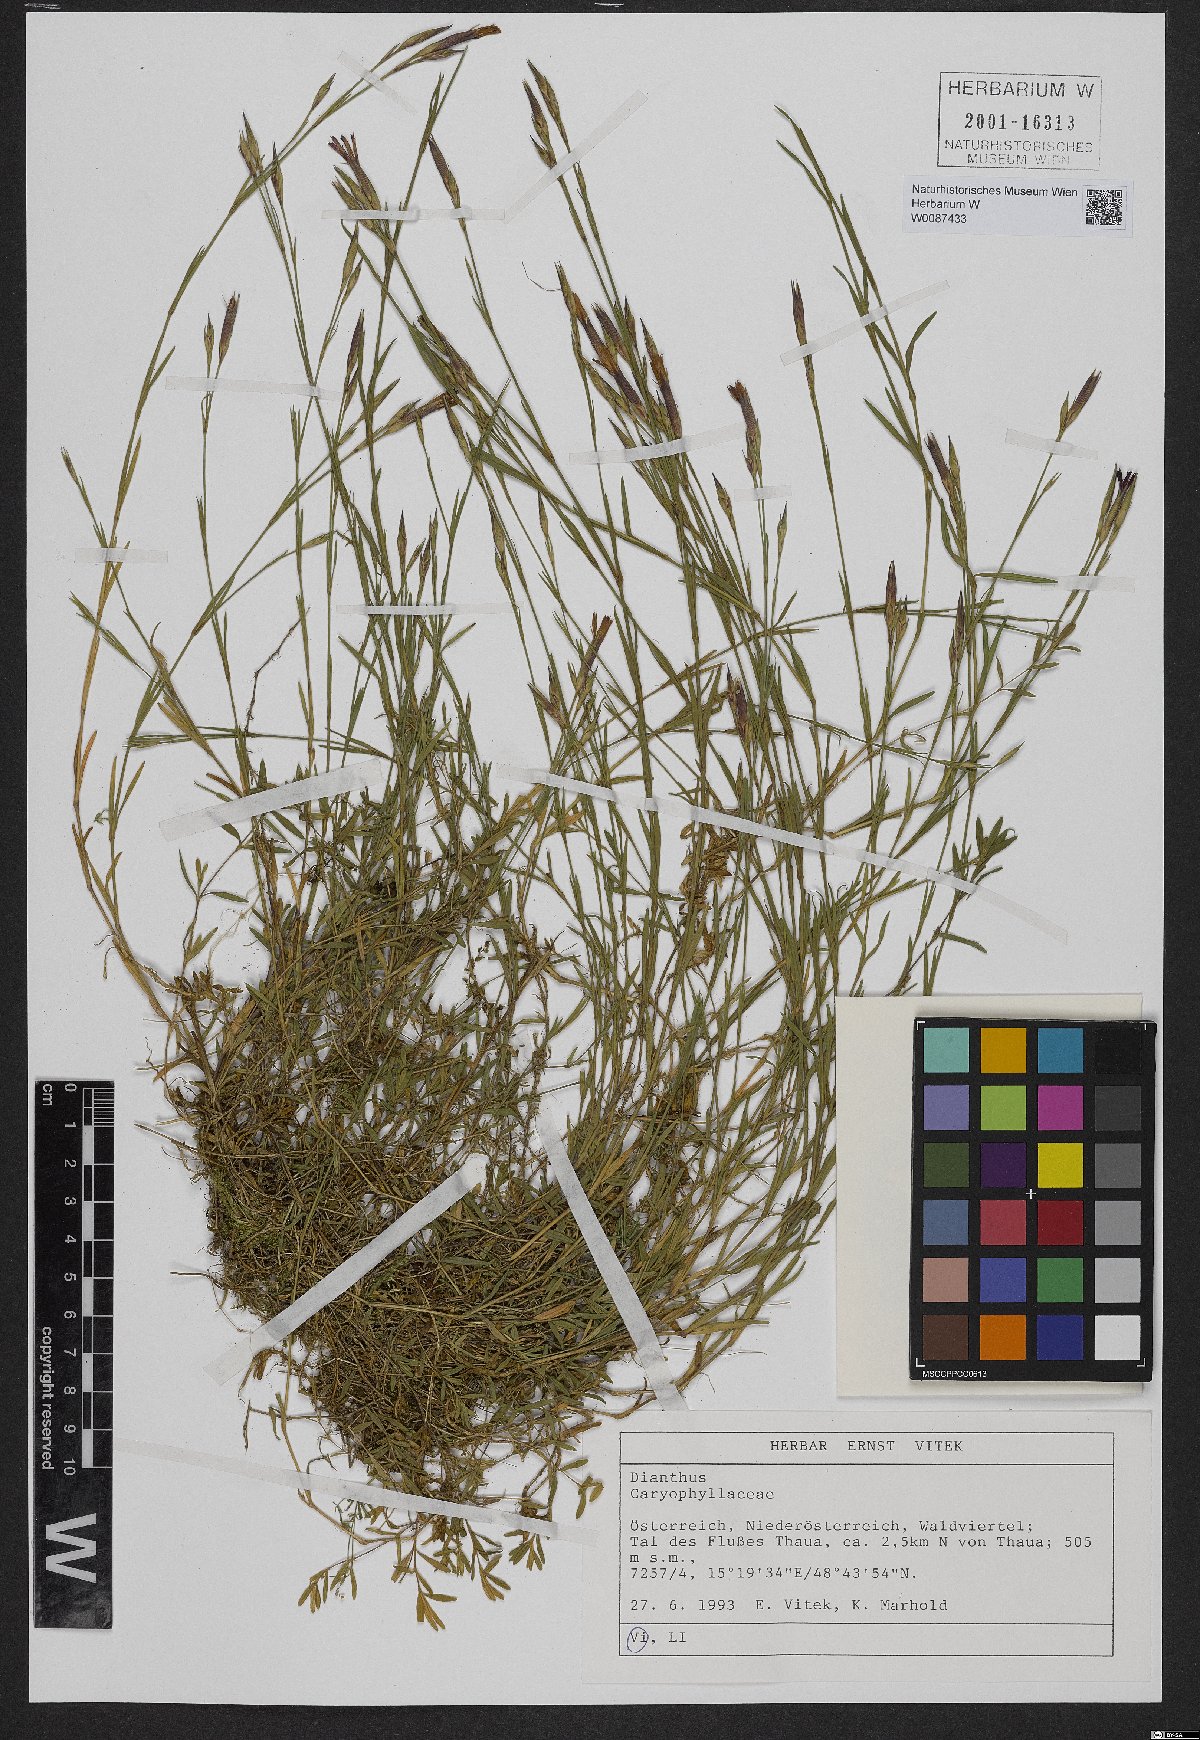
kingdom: Plantae
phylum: Tracheophyta
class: Magnoliopsida
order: Caryophyllales
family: Caryophyllaceae
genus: Dianthus
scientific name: Dianthus deltoides
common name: Maiden pink
